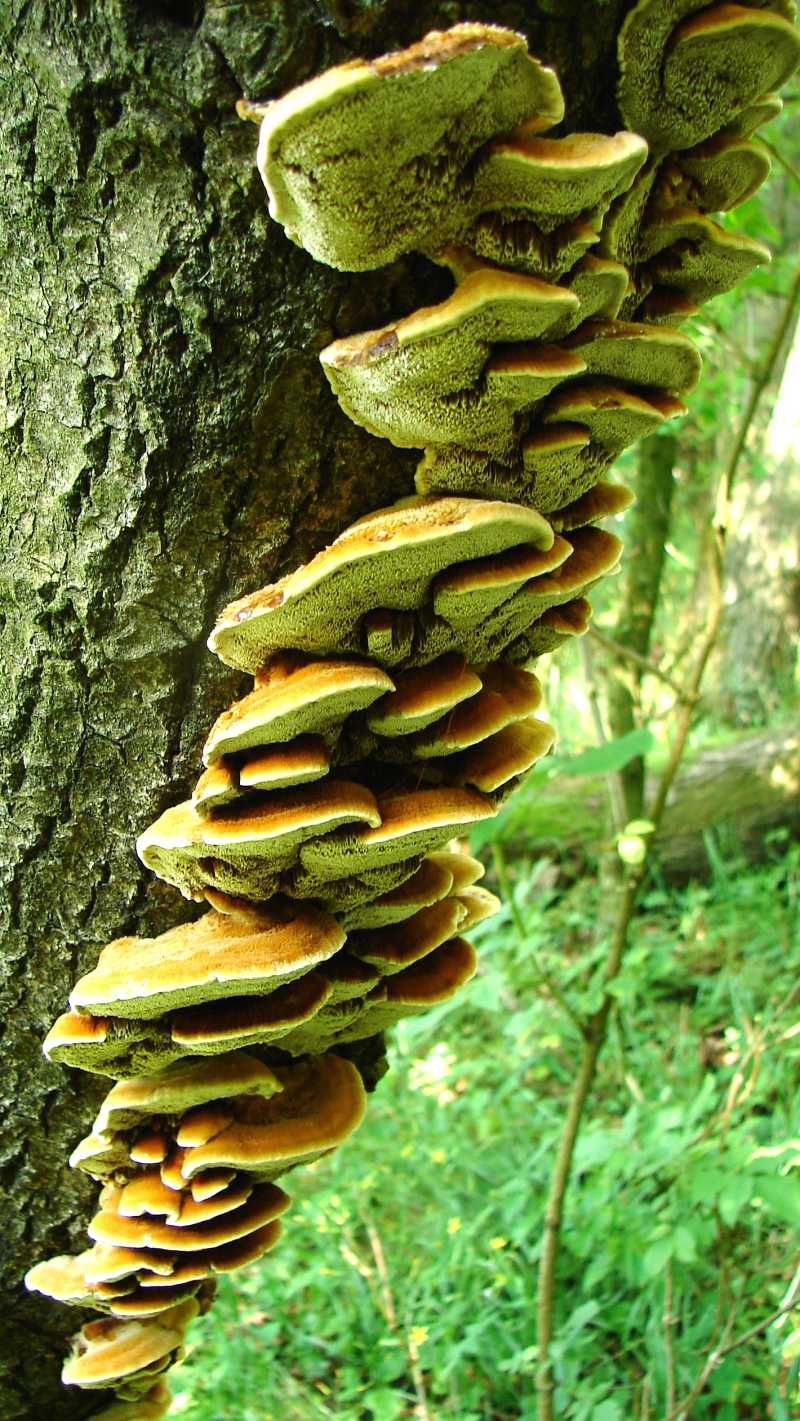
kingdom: Fungi
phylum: Basidiomycota
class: Agaricomycetes
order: Hymenochaetales
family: Hymenochaetaceae
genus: Inocutis
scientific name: Inocutis rheades
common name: ræve-spejlporesvamp
